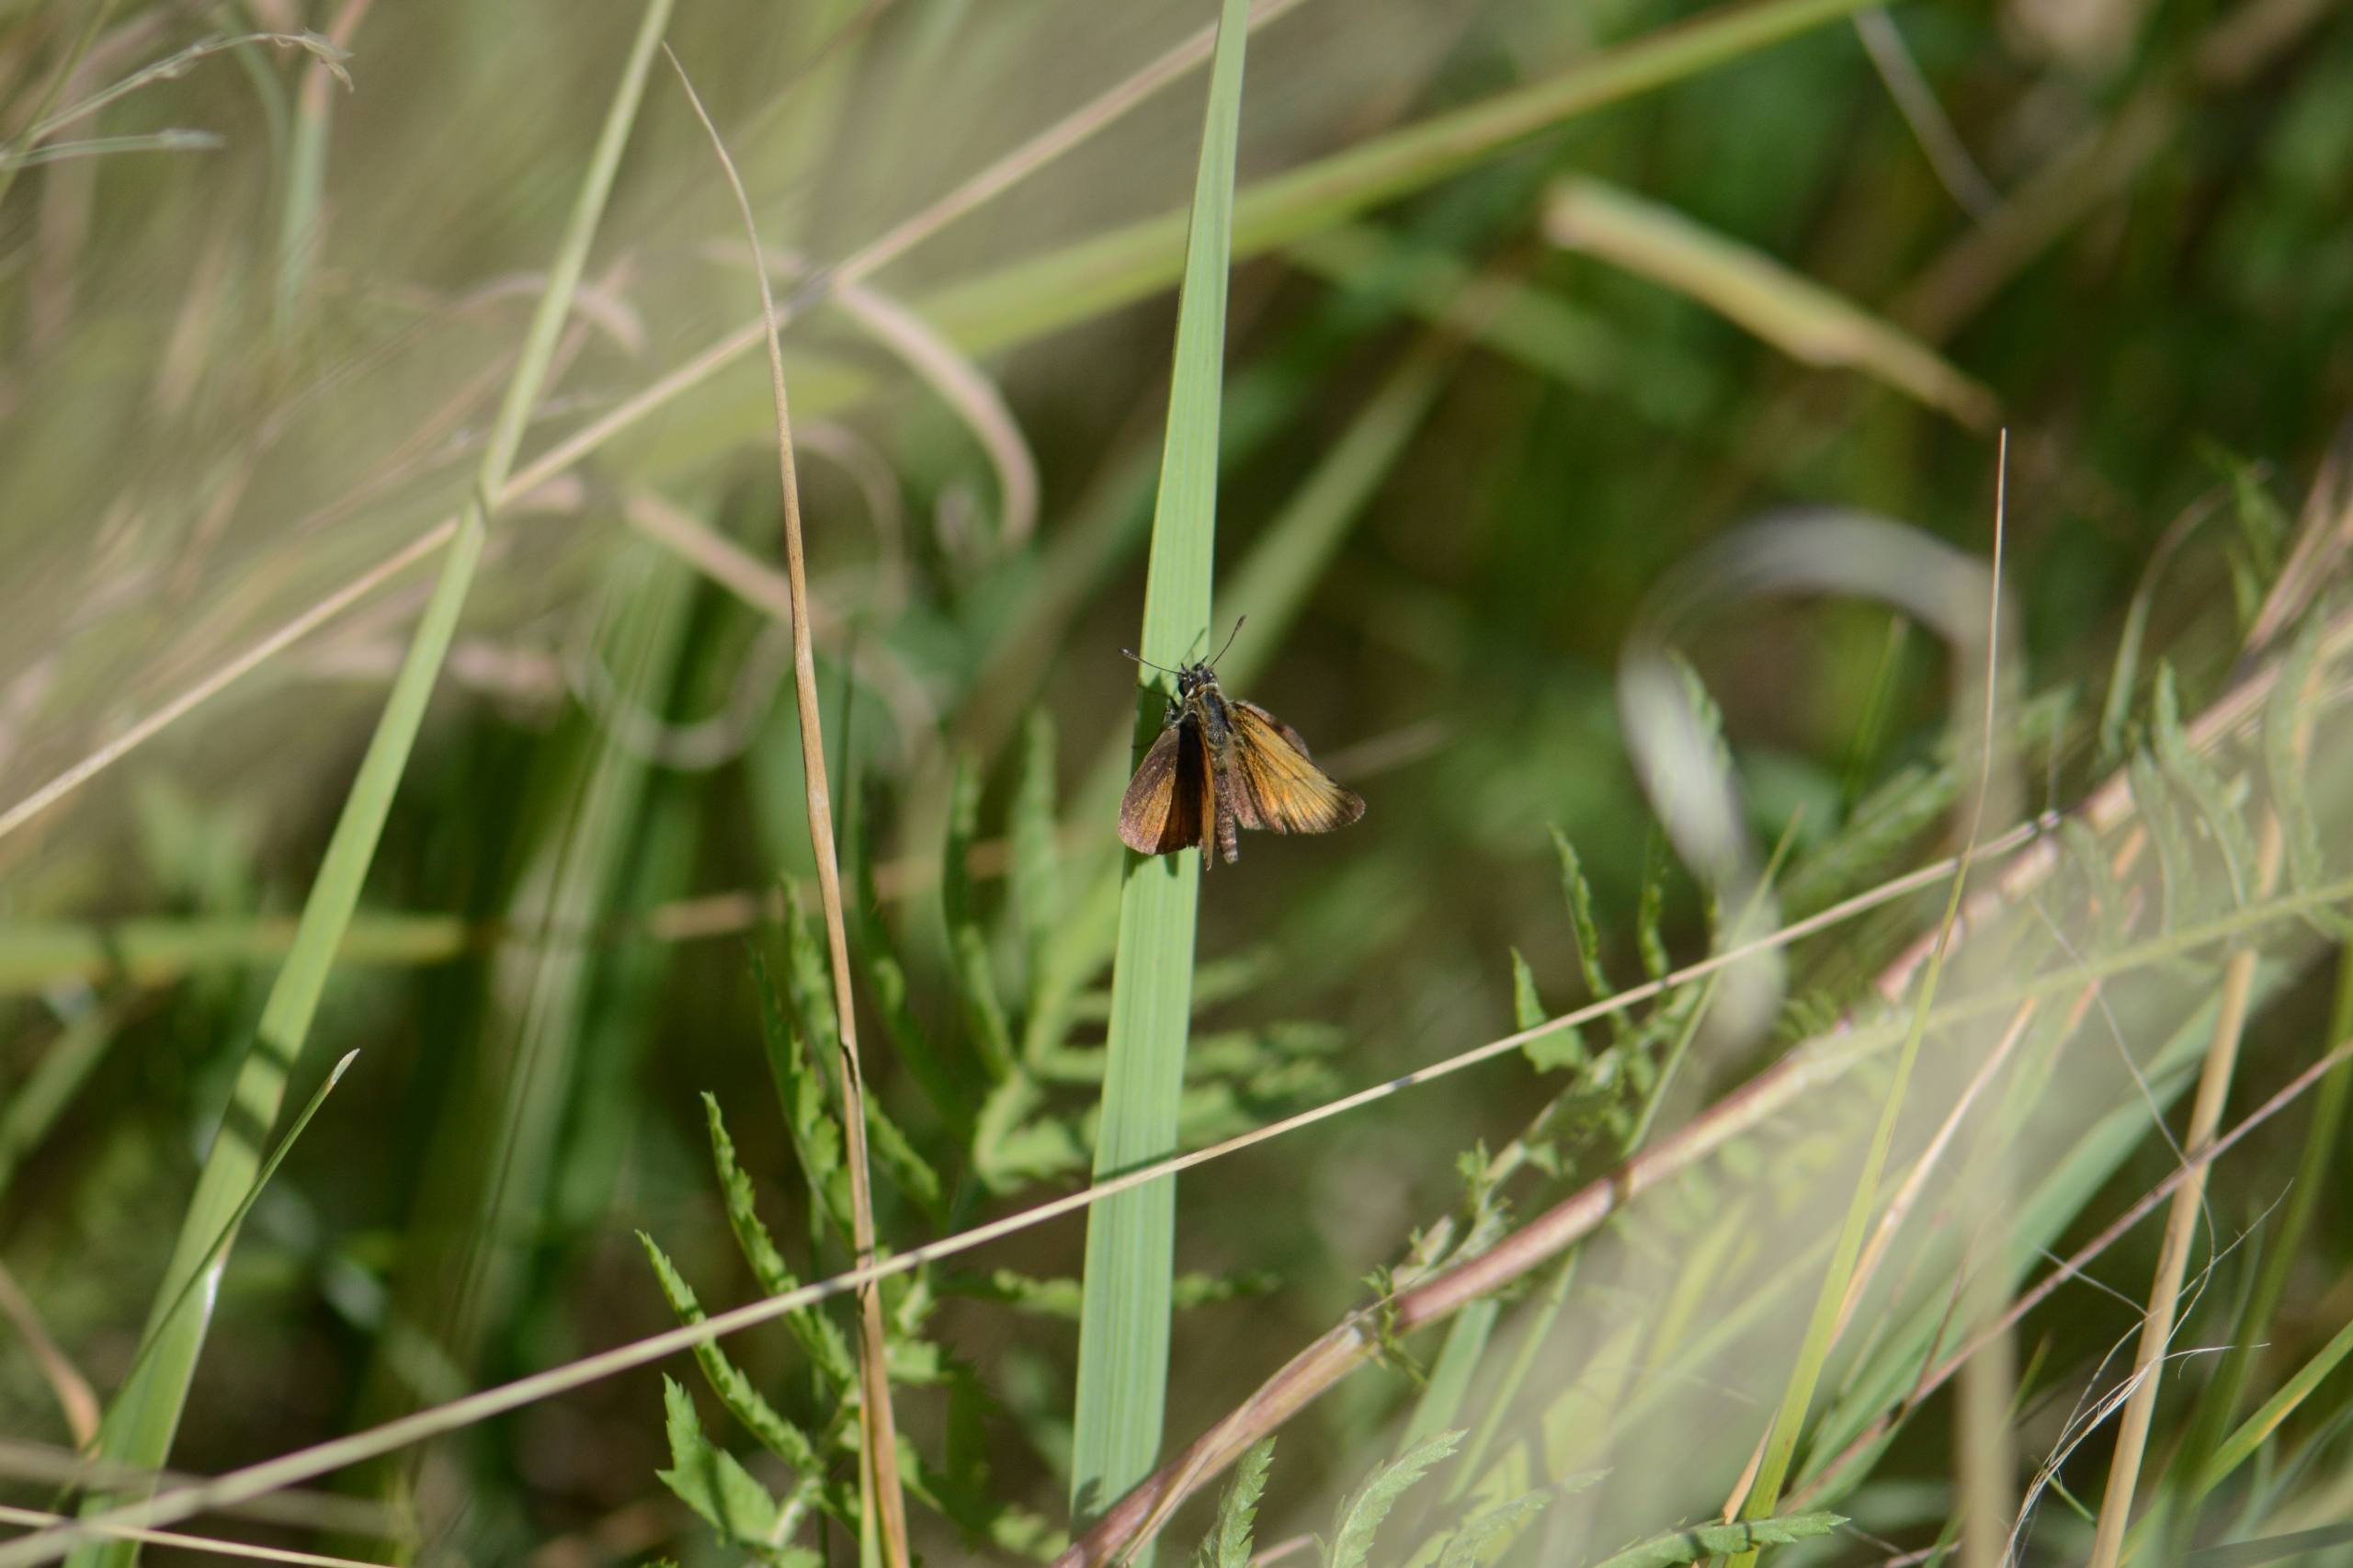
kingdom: Animalia
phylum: Arthropoda
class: Insecta
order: Lepidoptera
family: Hesperiidae
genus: Thymelicus
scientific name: Thymelicus lineola
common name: Stregbredpande
